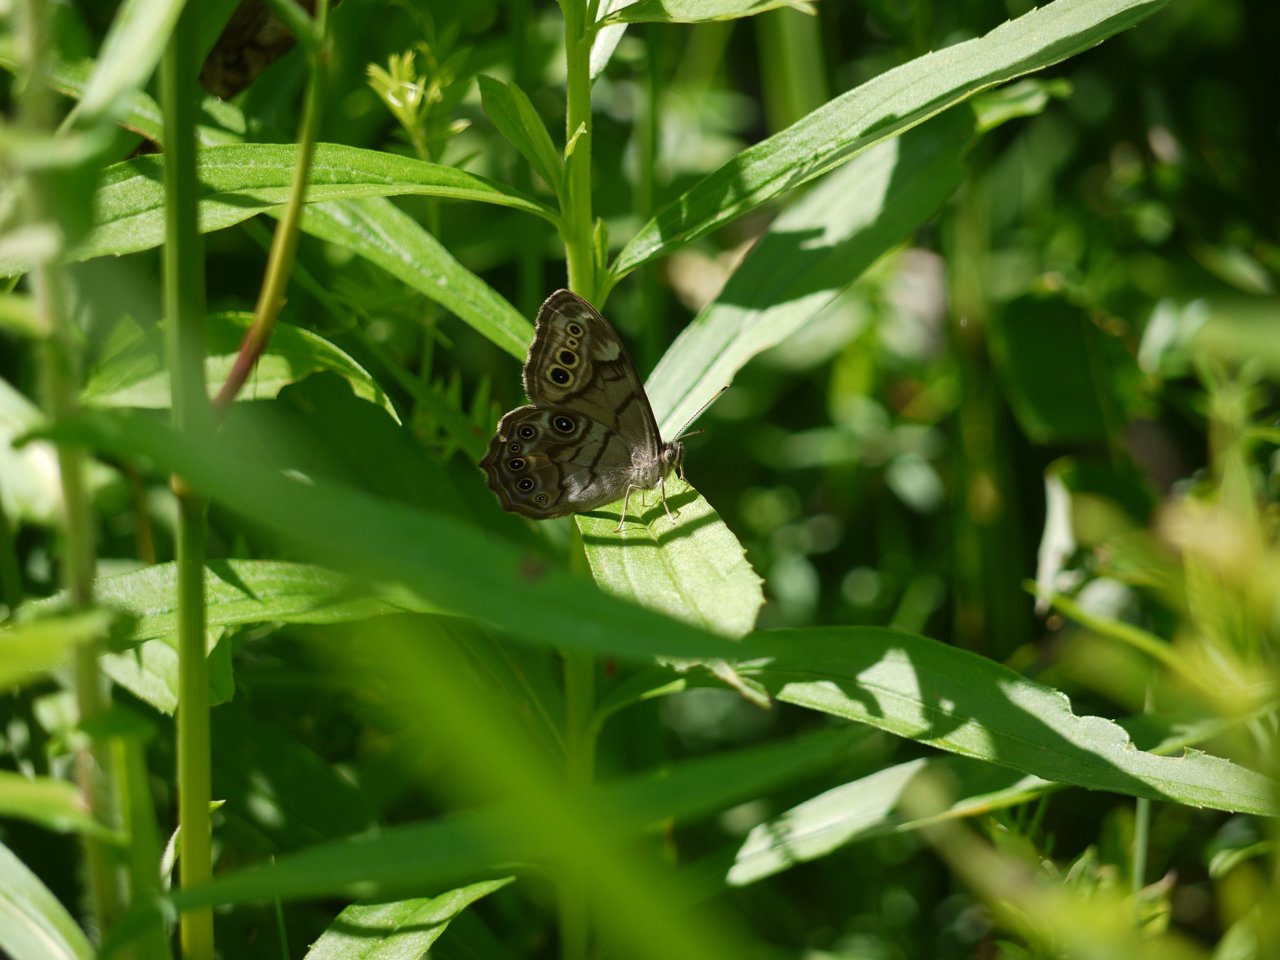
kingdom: Animalia
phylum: Arthropoda
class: Insecta
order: Lepidoptera
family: Nymphalidae
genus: Lethe
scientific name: Lethe anthedon
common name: Northern Pearly-Eye
